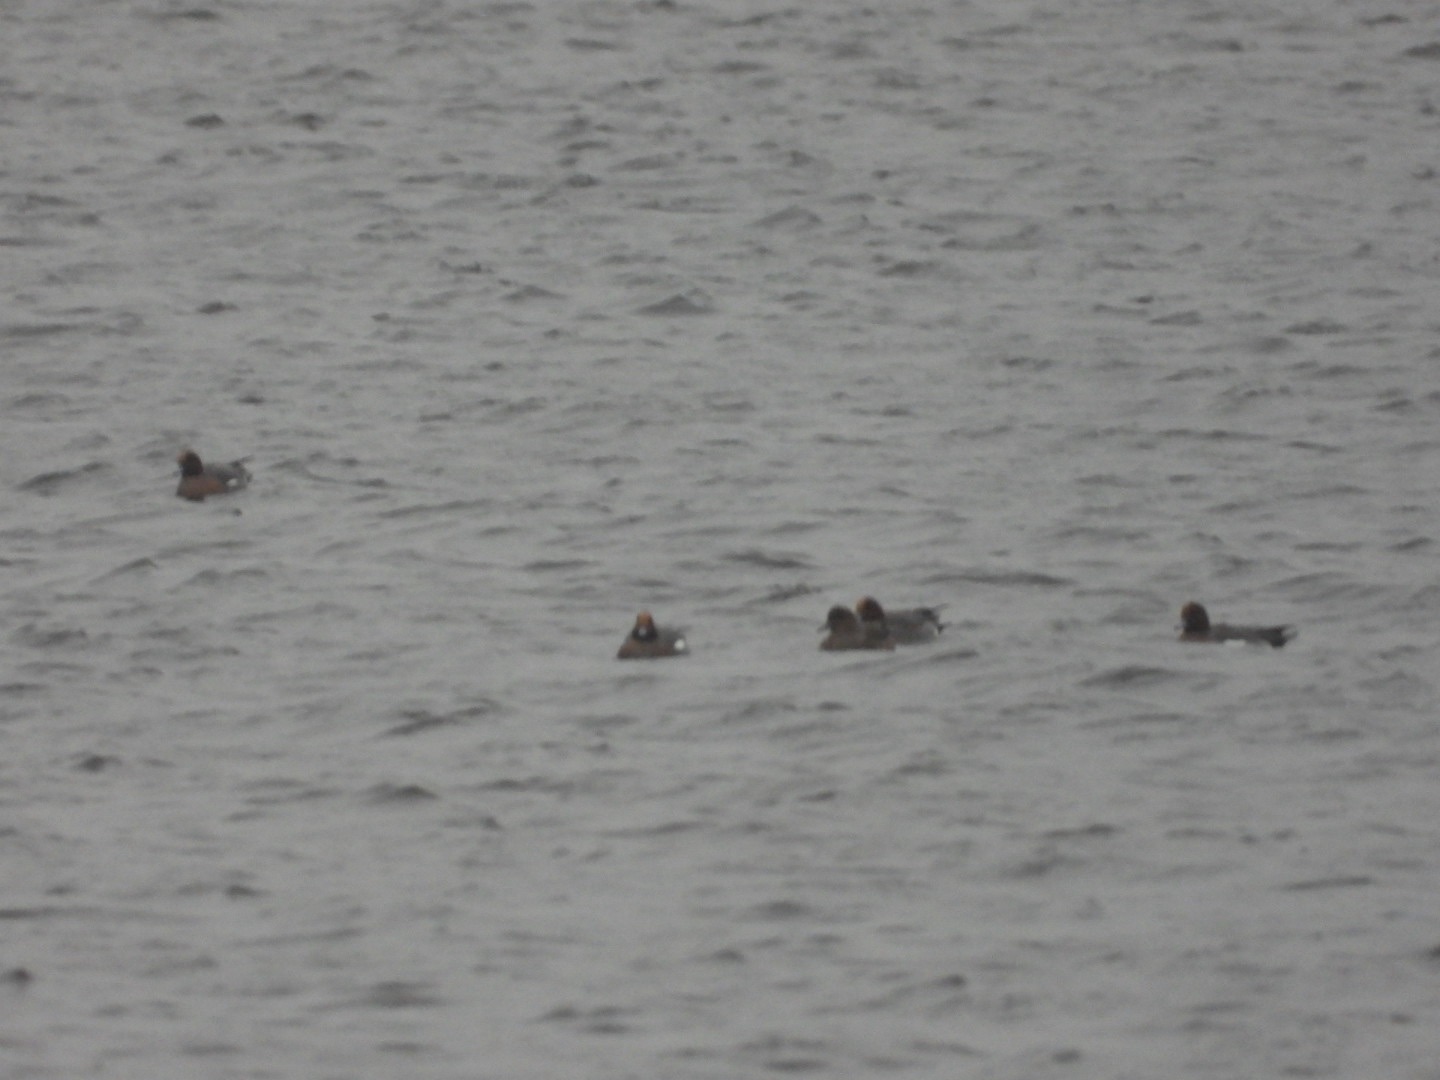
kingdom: Animalia
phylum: Chordata
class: Aves
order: Anseriformes
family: Anatidae
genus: Mareca
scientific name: Mareca penelope
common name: Pibeand
